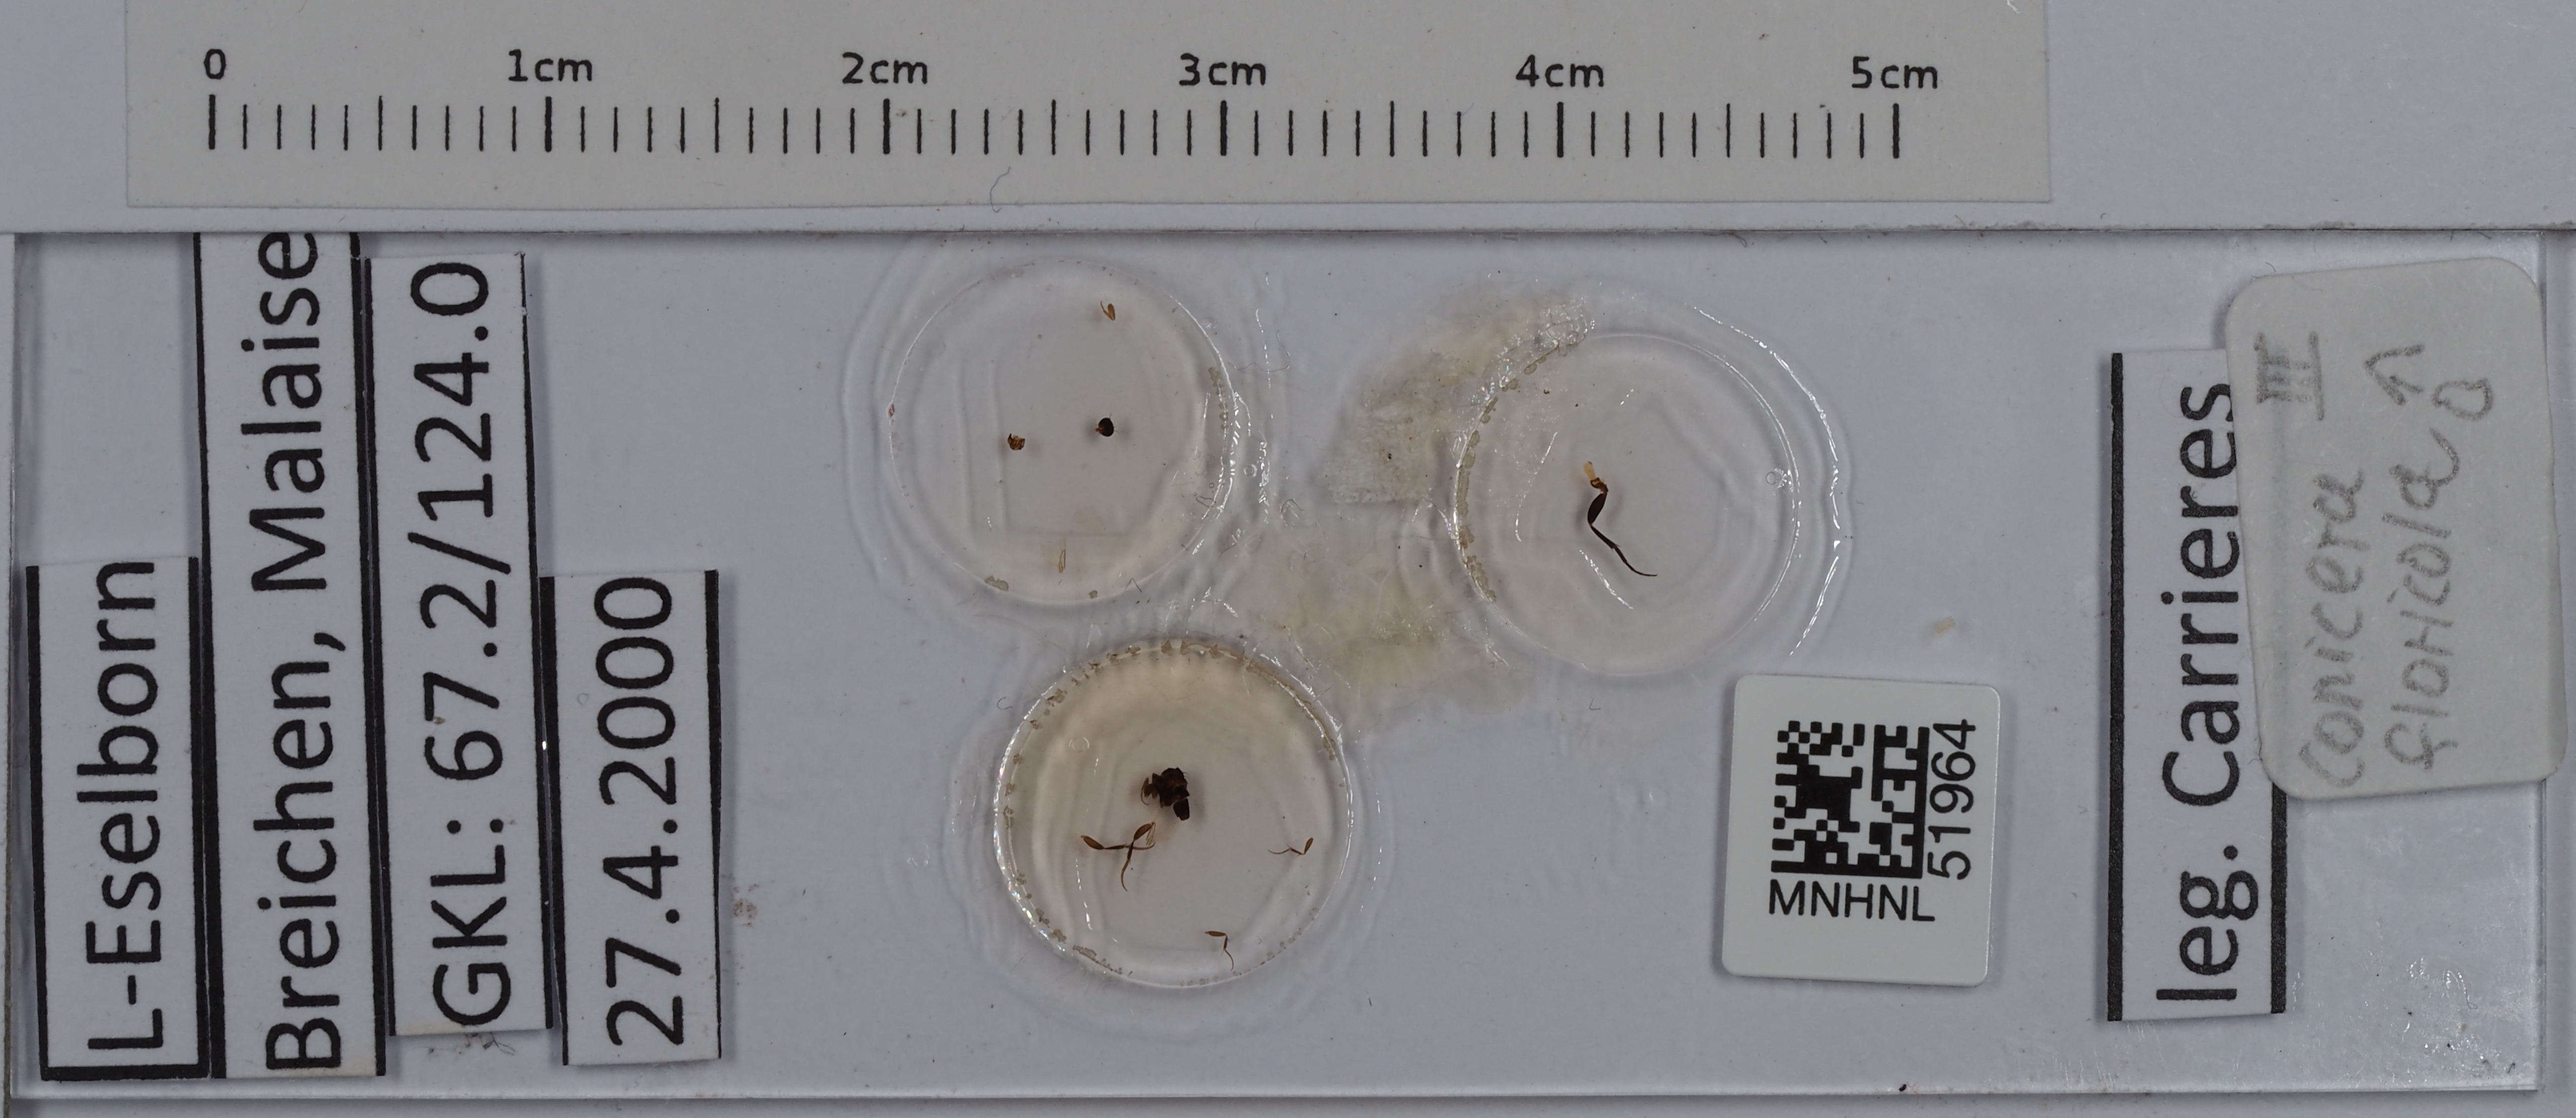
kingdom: Animalia
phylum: Arthropoda
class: Insecta
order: Diptera
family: Phoridae
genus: Conicera
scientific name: Conicera floricola
